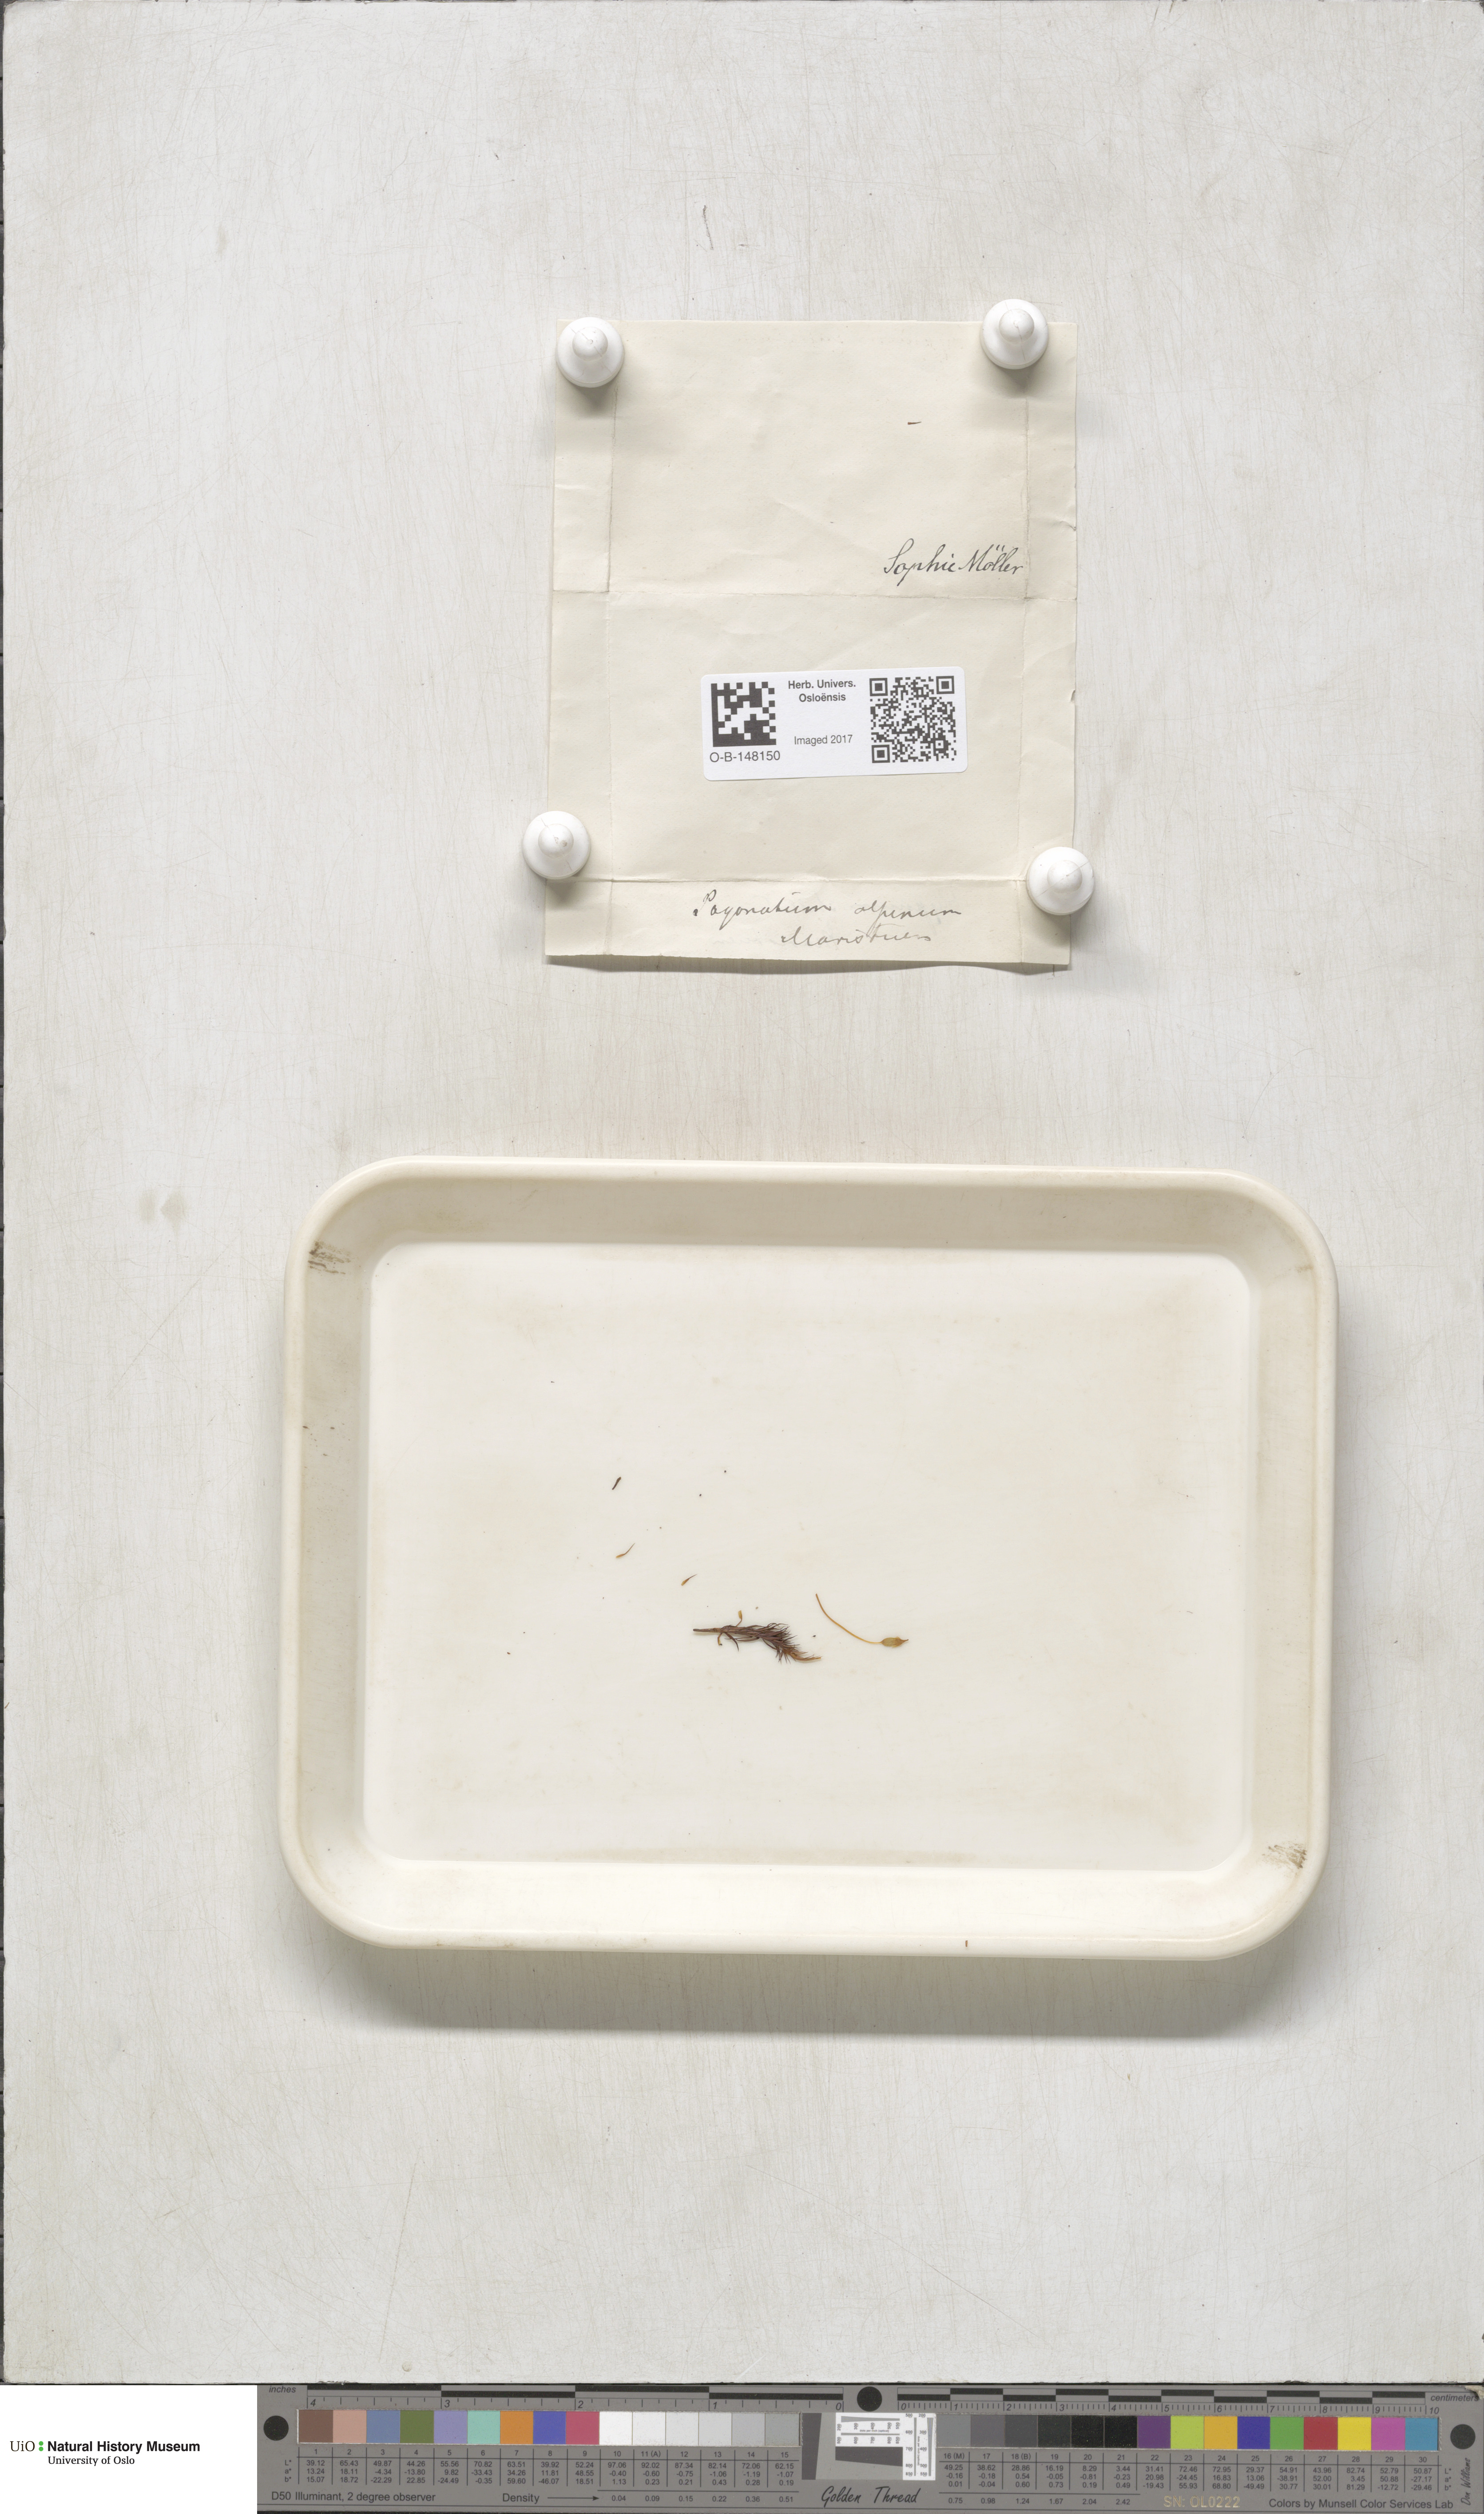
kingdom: Plantae
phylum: Bryophyta
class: Polytrichopsida
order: Polytrichales
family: Polytrichaceae
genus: Polytrichastrum
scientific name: Polytrichastrum alpinum
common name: Alpine haircap
